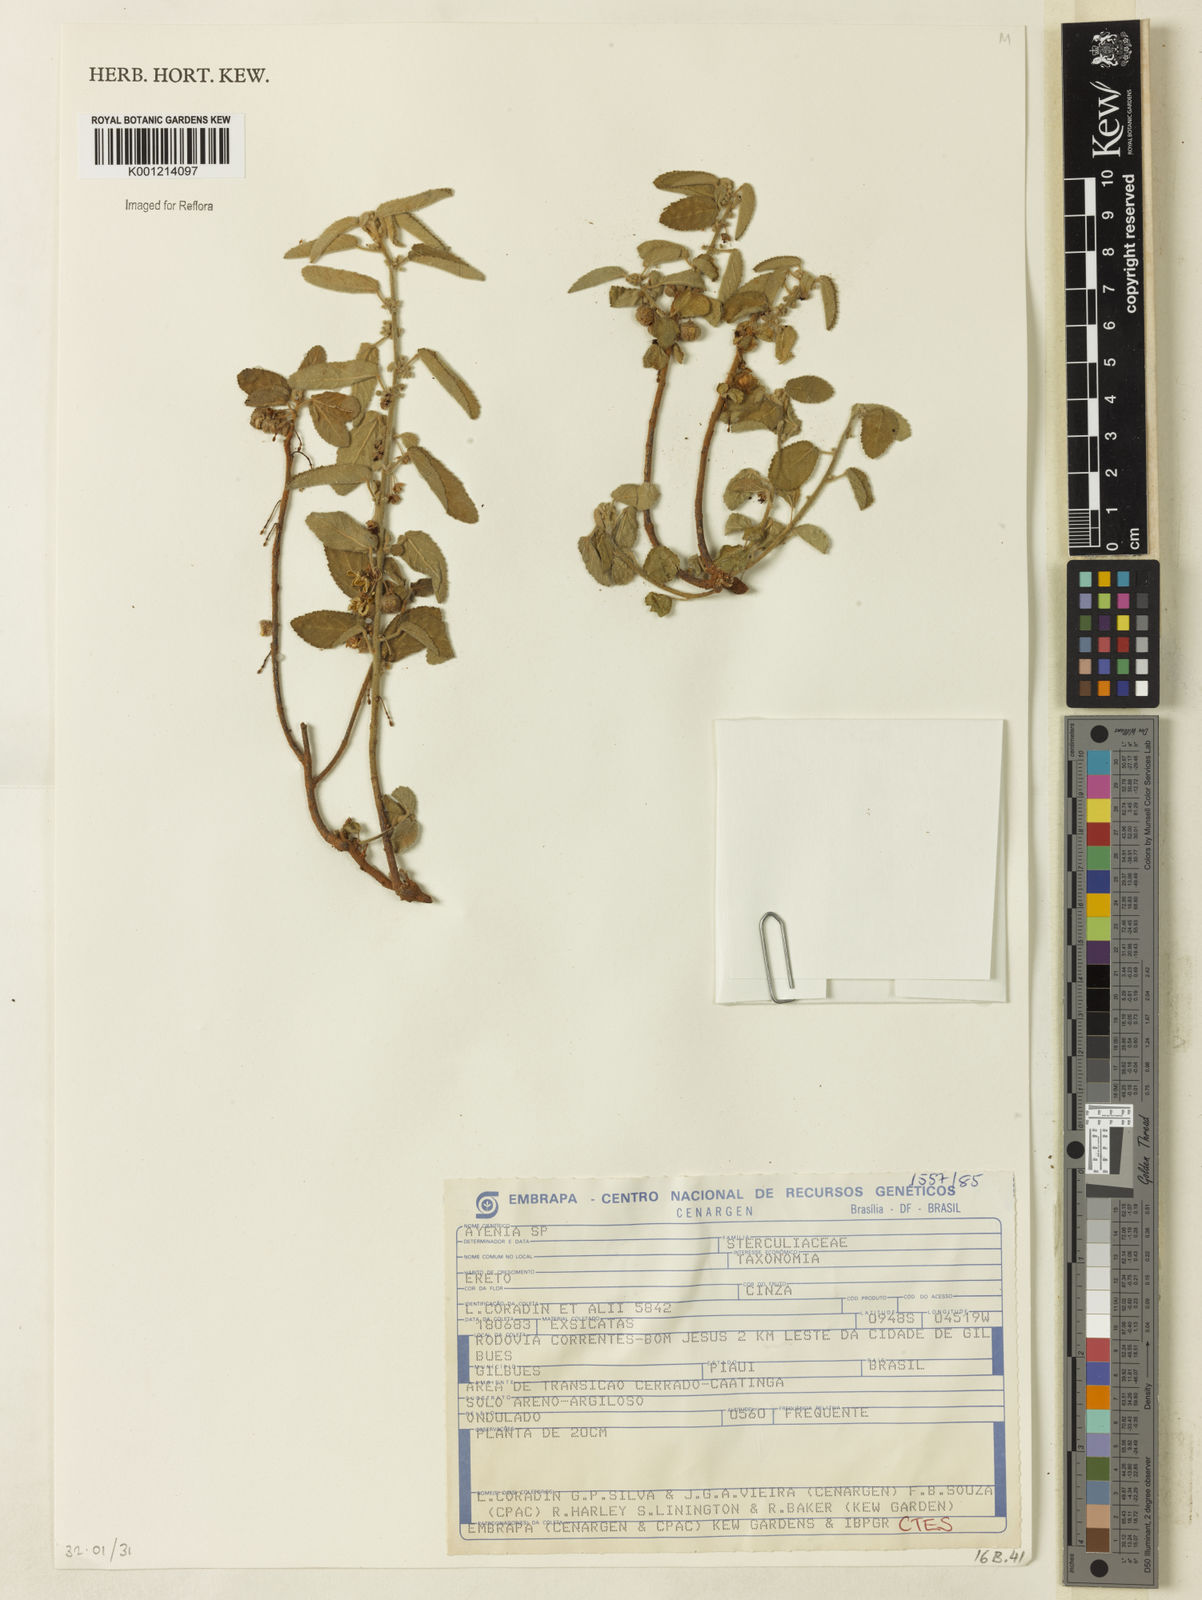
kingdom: Plantae
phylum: Tracheophyta
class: Magnoliopsida
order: Malvales
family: Malvaceae
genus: Ayenia
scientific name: Ayenia
